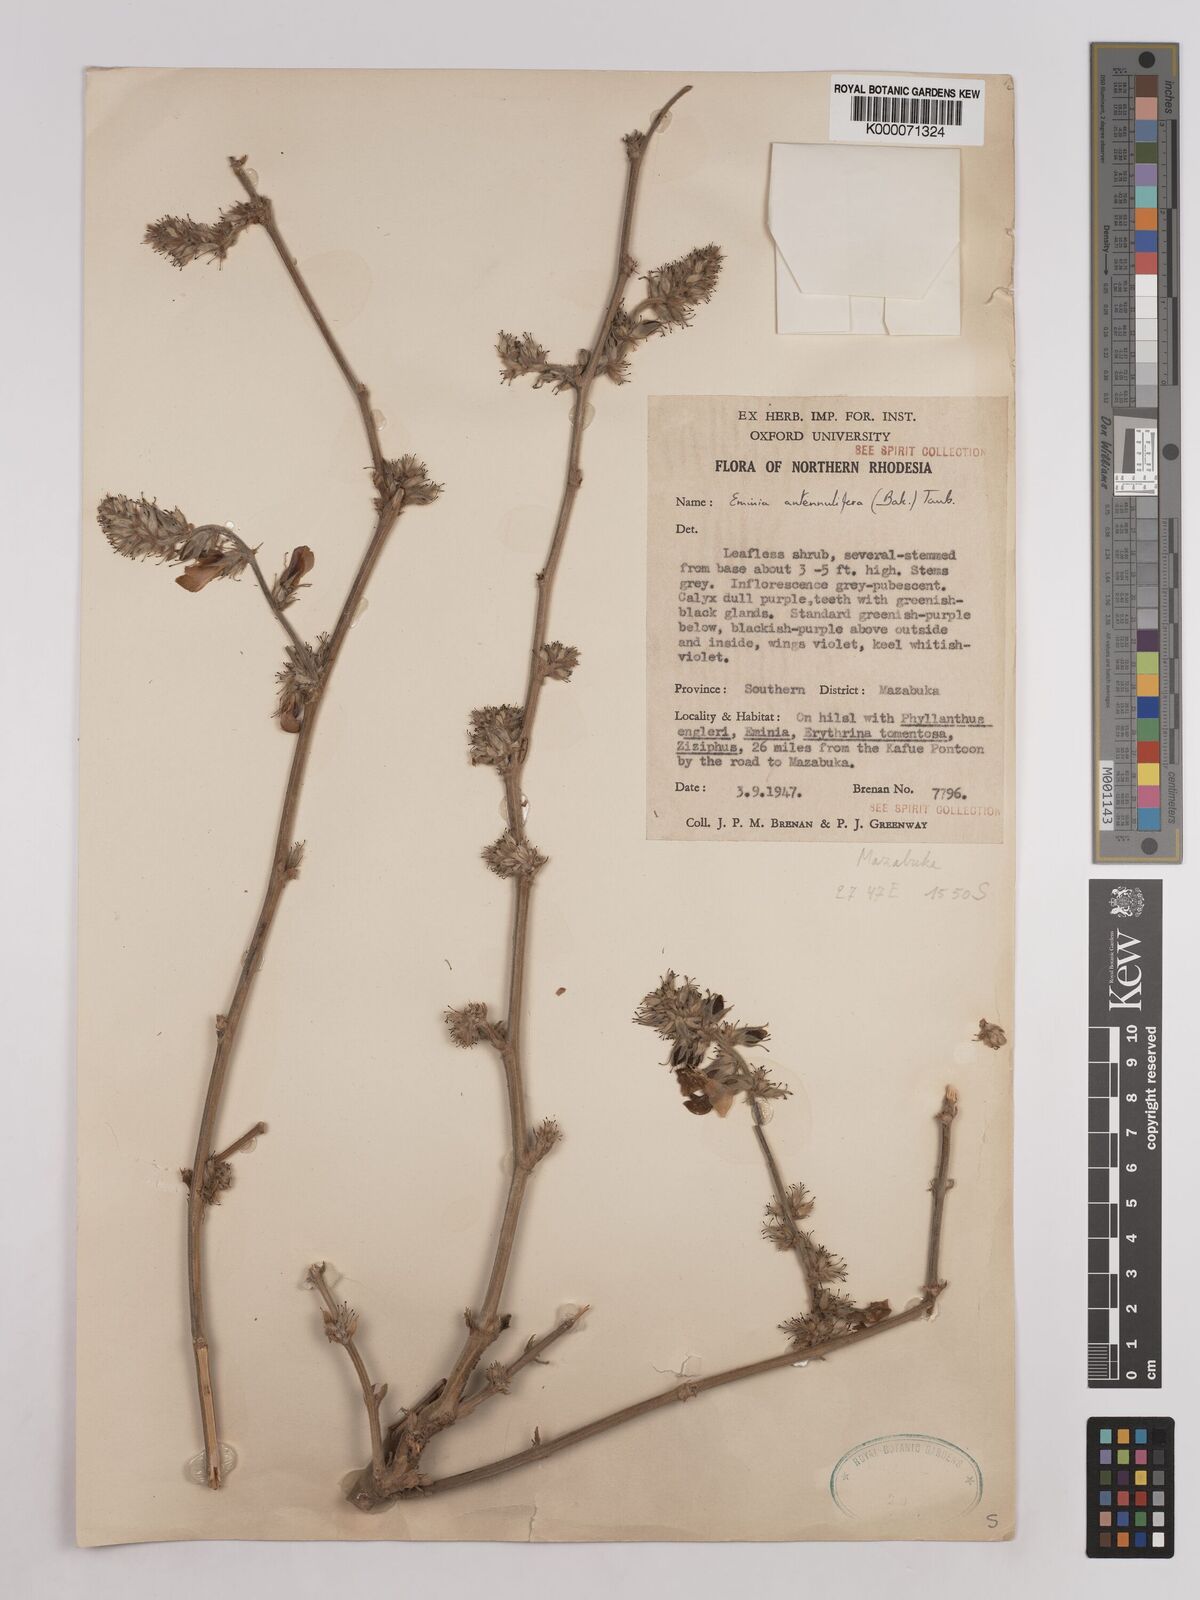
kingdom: Plantae
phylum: Tracheophyta
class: Magnoliopsida
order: Fabales
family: Fabaceae
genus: Eminia
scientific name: Eminia antennulifera
